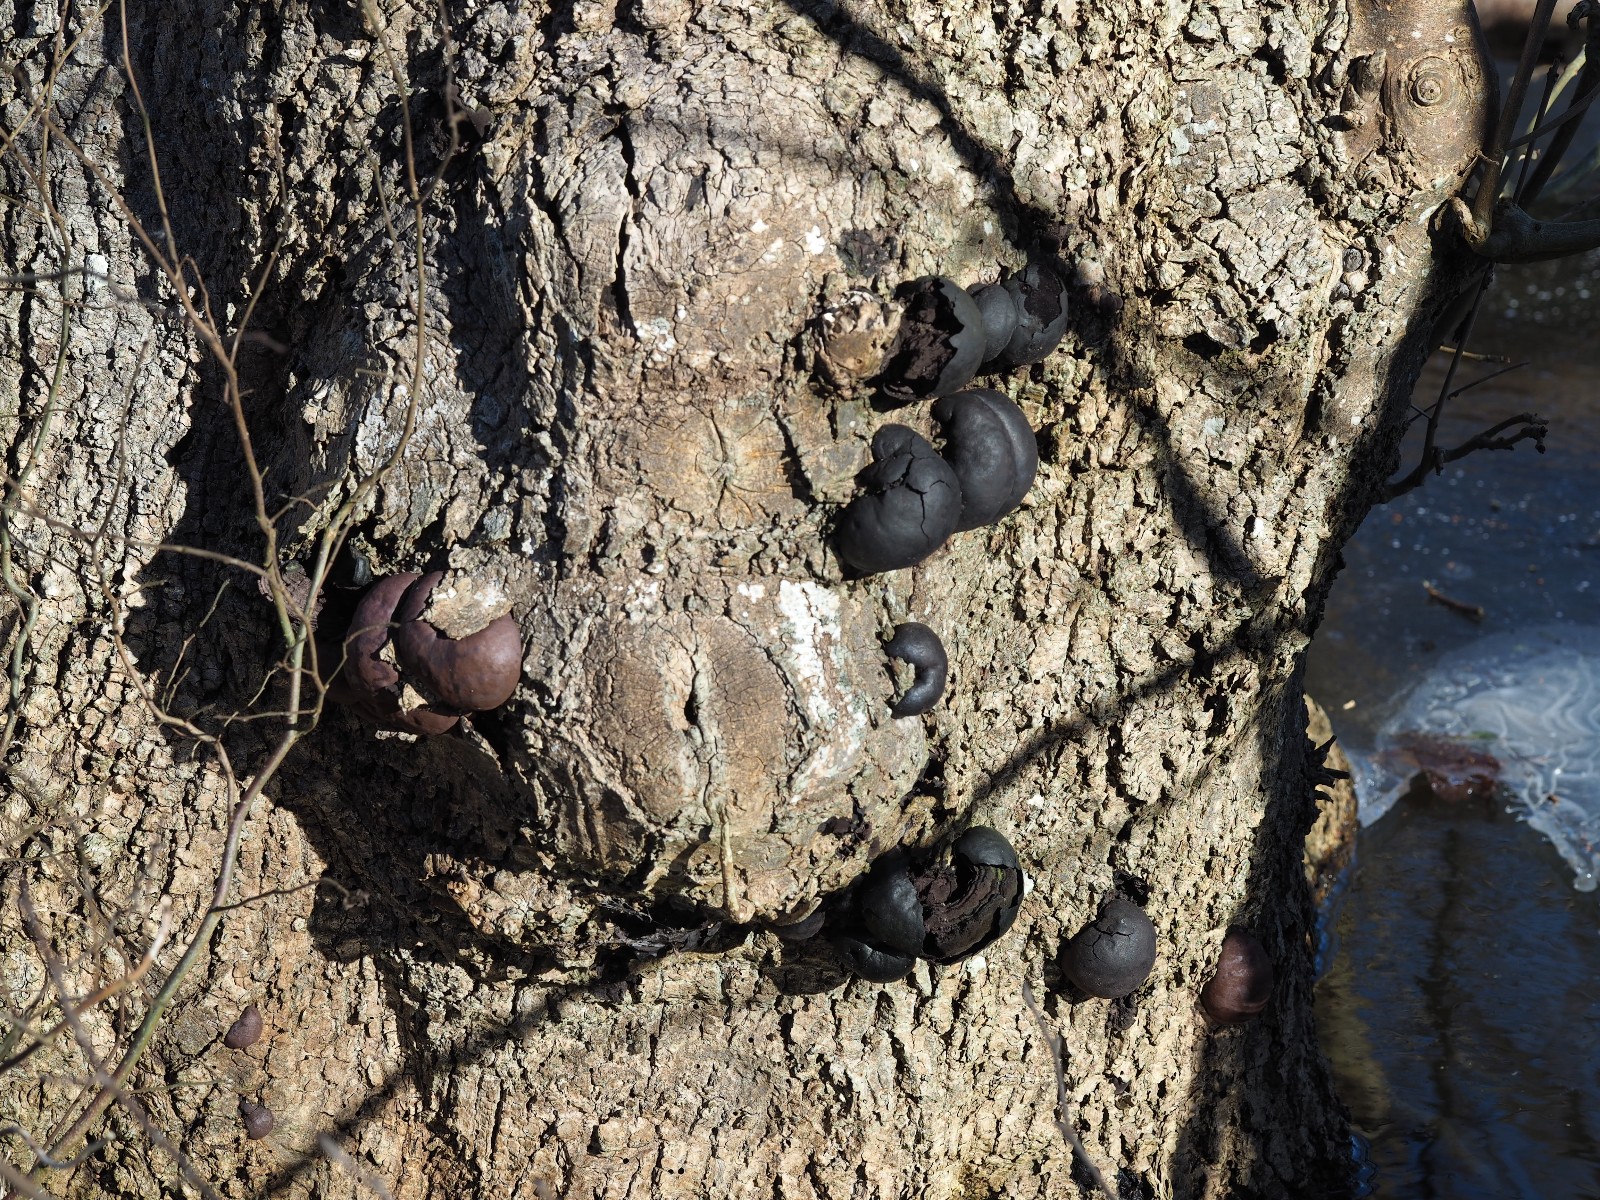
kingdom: Fungi
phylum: Ascomycota
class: Sordariomycetes
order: Xylariales
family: Hypoxylaceae
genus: Daldinia
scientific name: Daldinia concentrica
